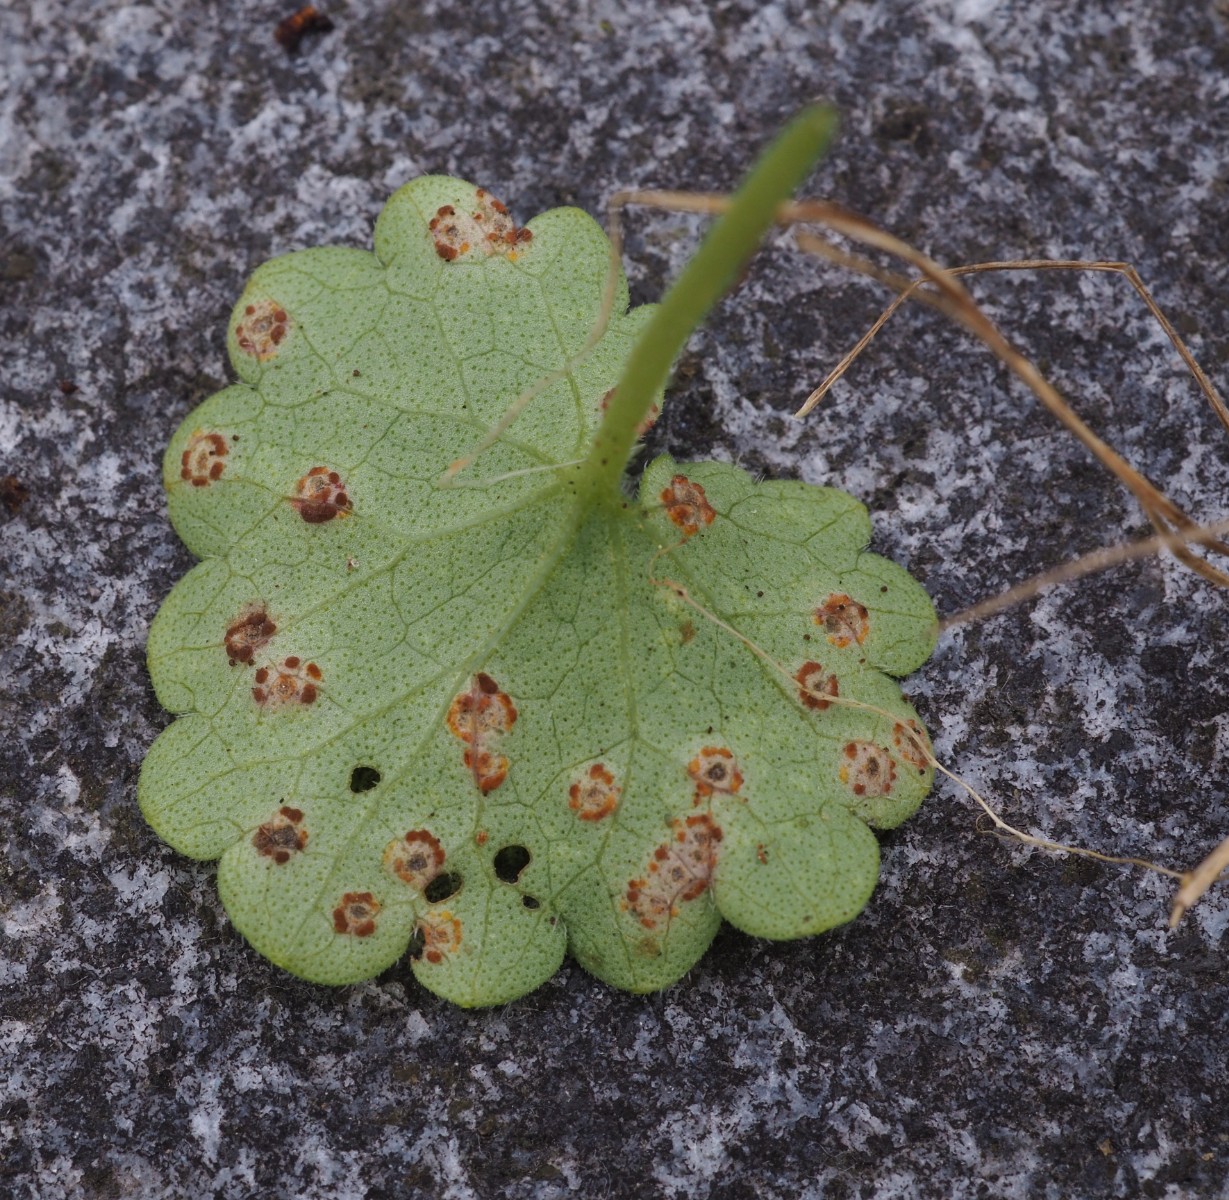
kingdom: Fungi
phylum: Basidiomycota
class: Pucciniomycetes
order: Pucciniales
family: Pucciniaceae
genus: Puccinia
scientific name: Puccinia glechomatis
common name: Ground ivy rust
